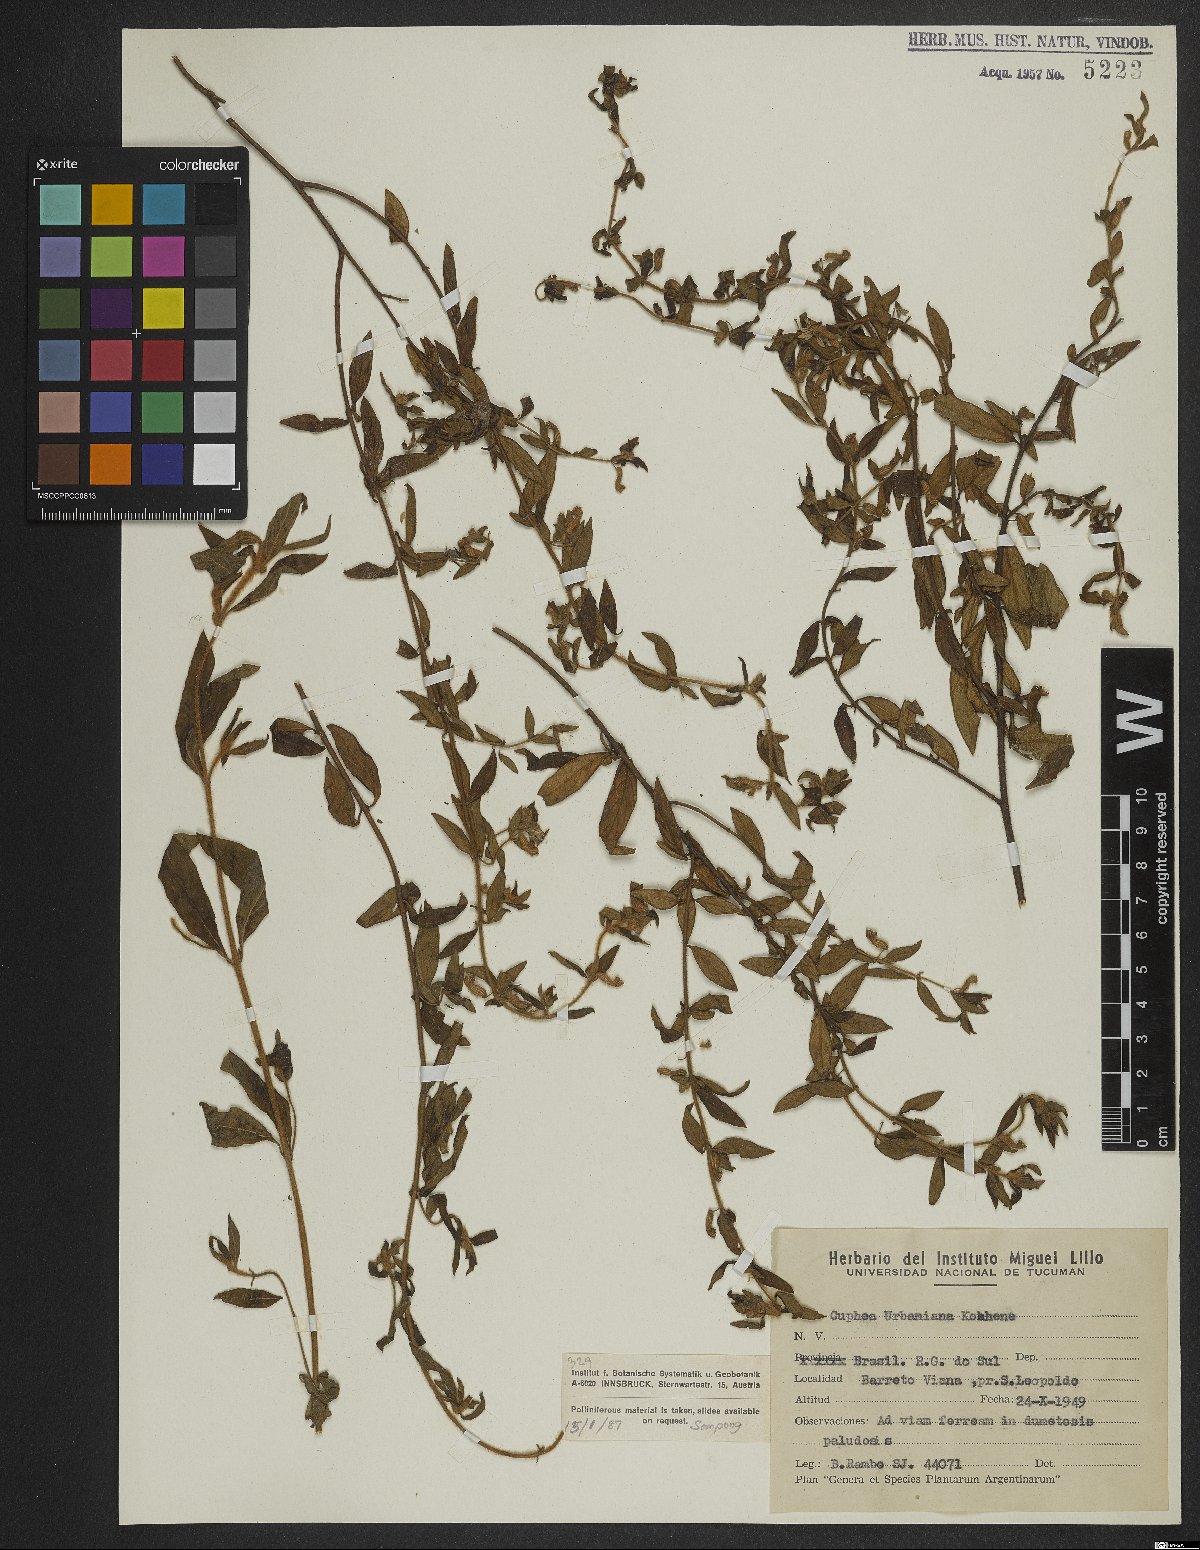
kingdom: Plantae
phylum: Tracheophyta
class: Magnoliopsida
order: Myrtales
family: Lythraceae
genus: Cuphea
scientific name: Cuphea urbaniana
